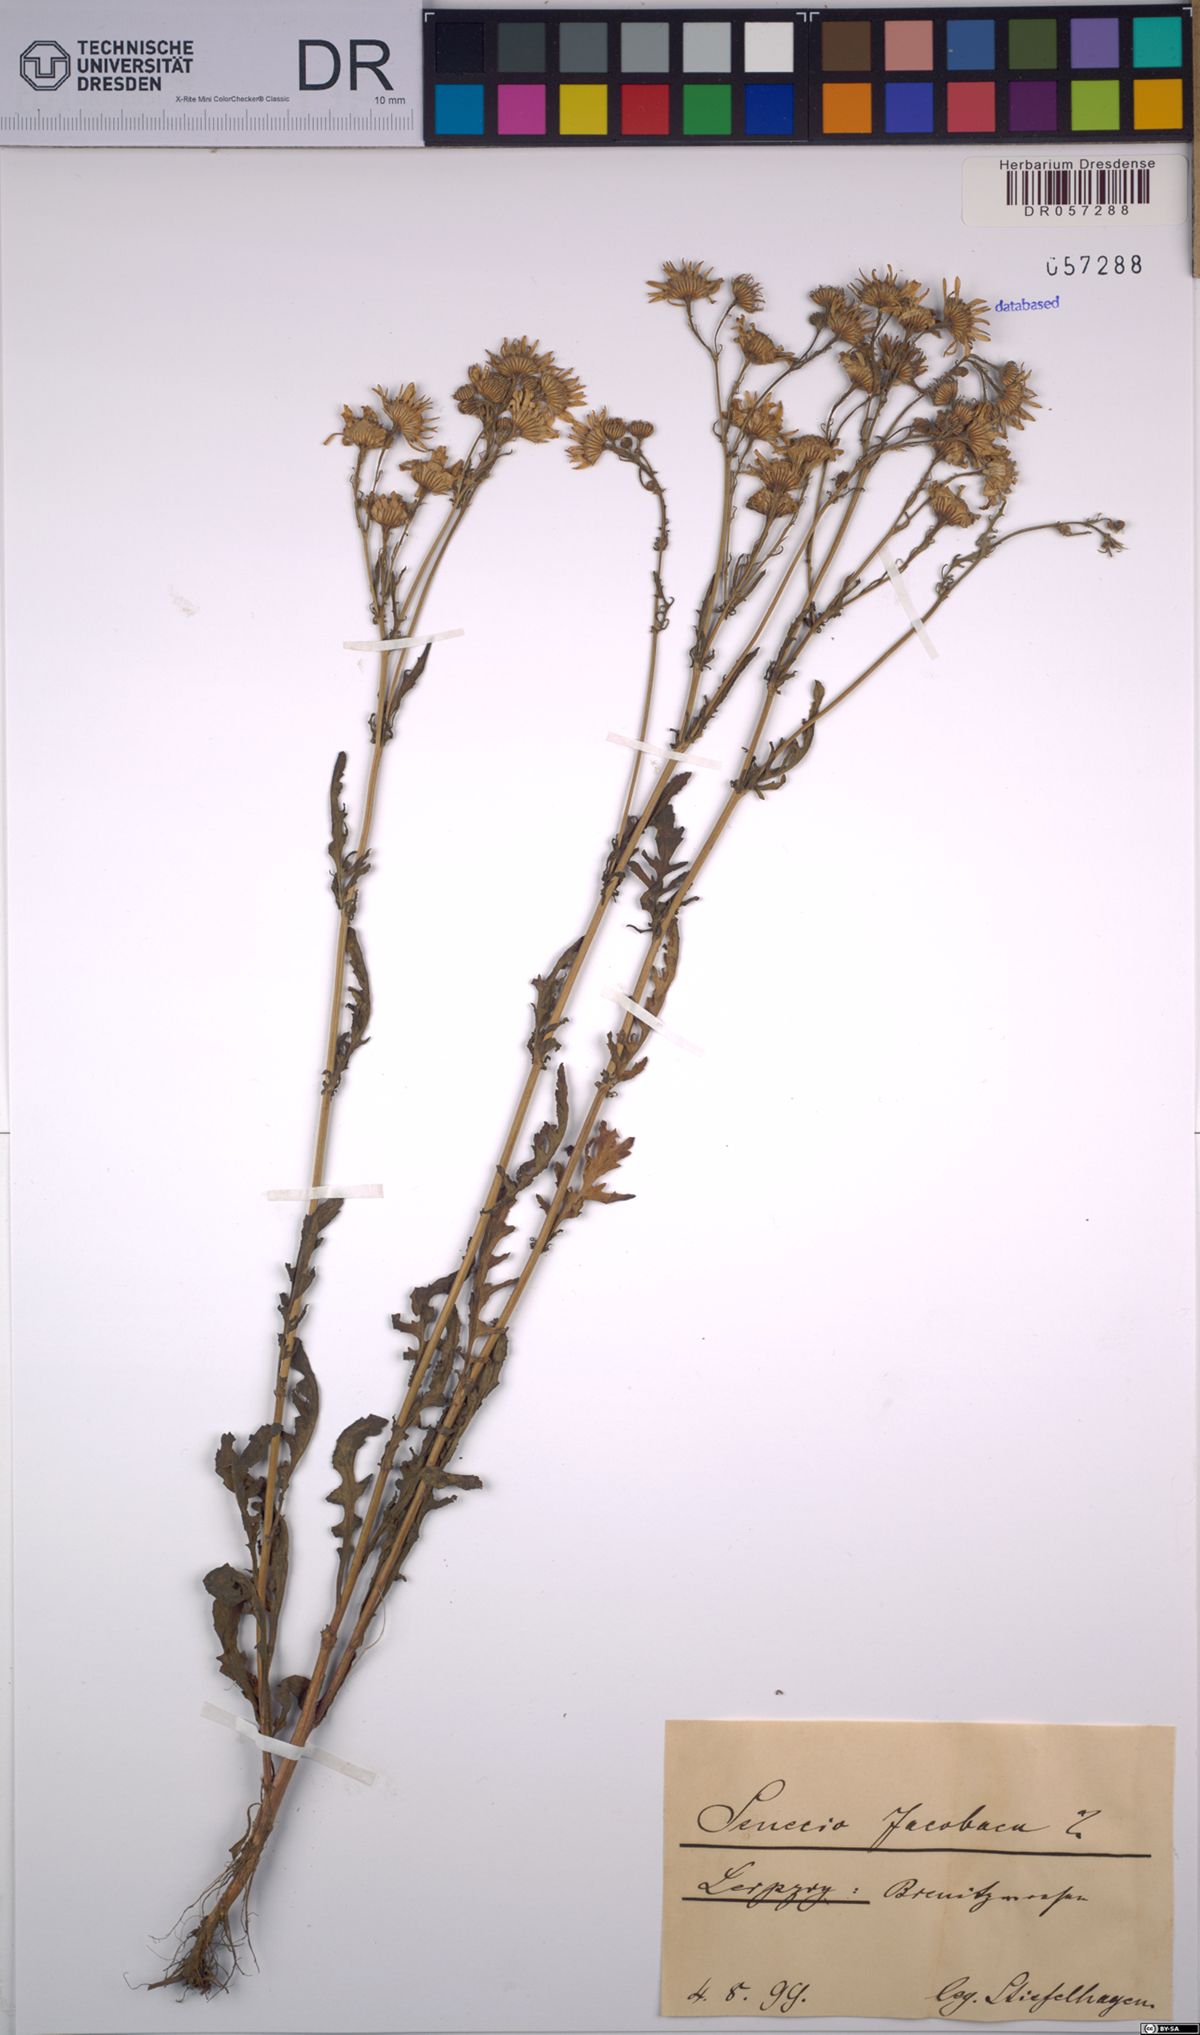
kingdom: Plantae
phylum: Tracheophyta
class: Magnoliopsida
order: Asterales
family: Asteraceae
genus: Jacobaea
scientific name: Jacobaea vulgaris
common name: Stinking willie
